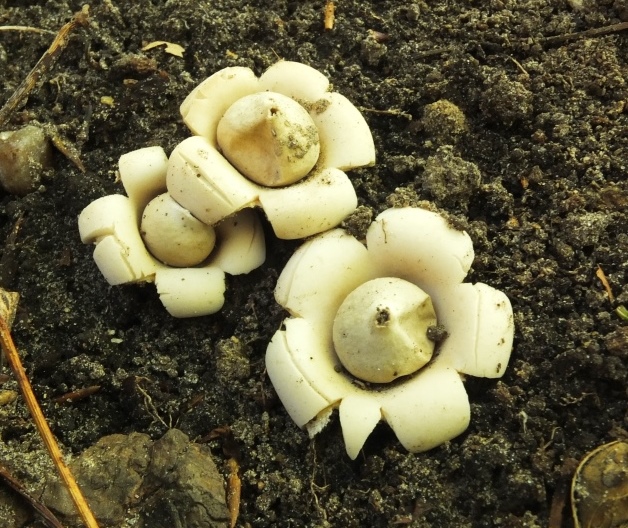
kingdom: Fungi
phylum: Basidiomycota
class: Agaricomycetes
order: Geastrales
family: Geastraceae
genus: Geastrum
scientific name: Geastrum fimbriatum
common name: frynset stjernebold
